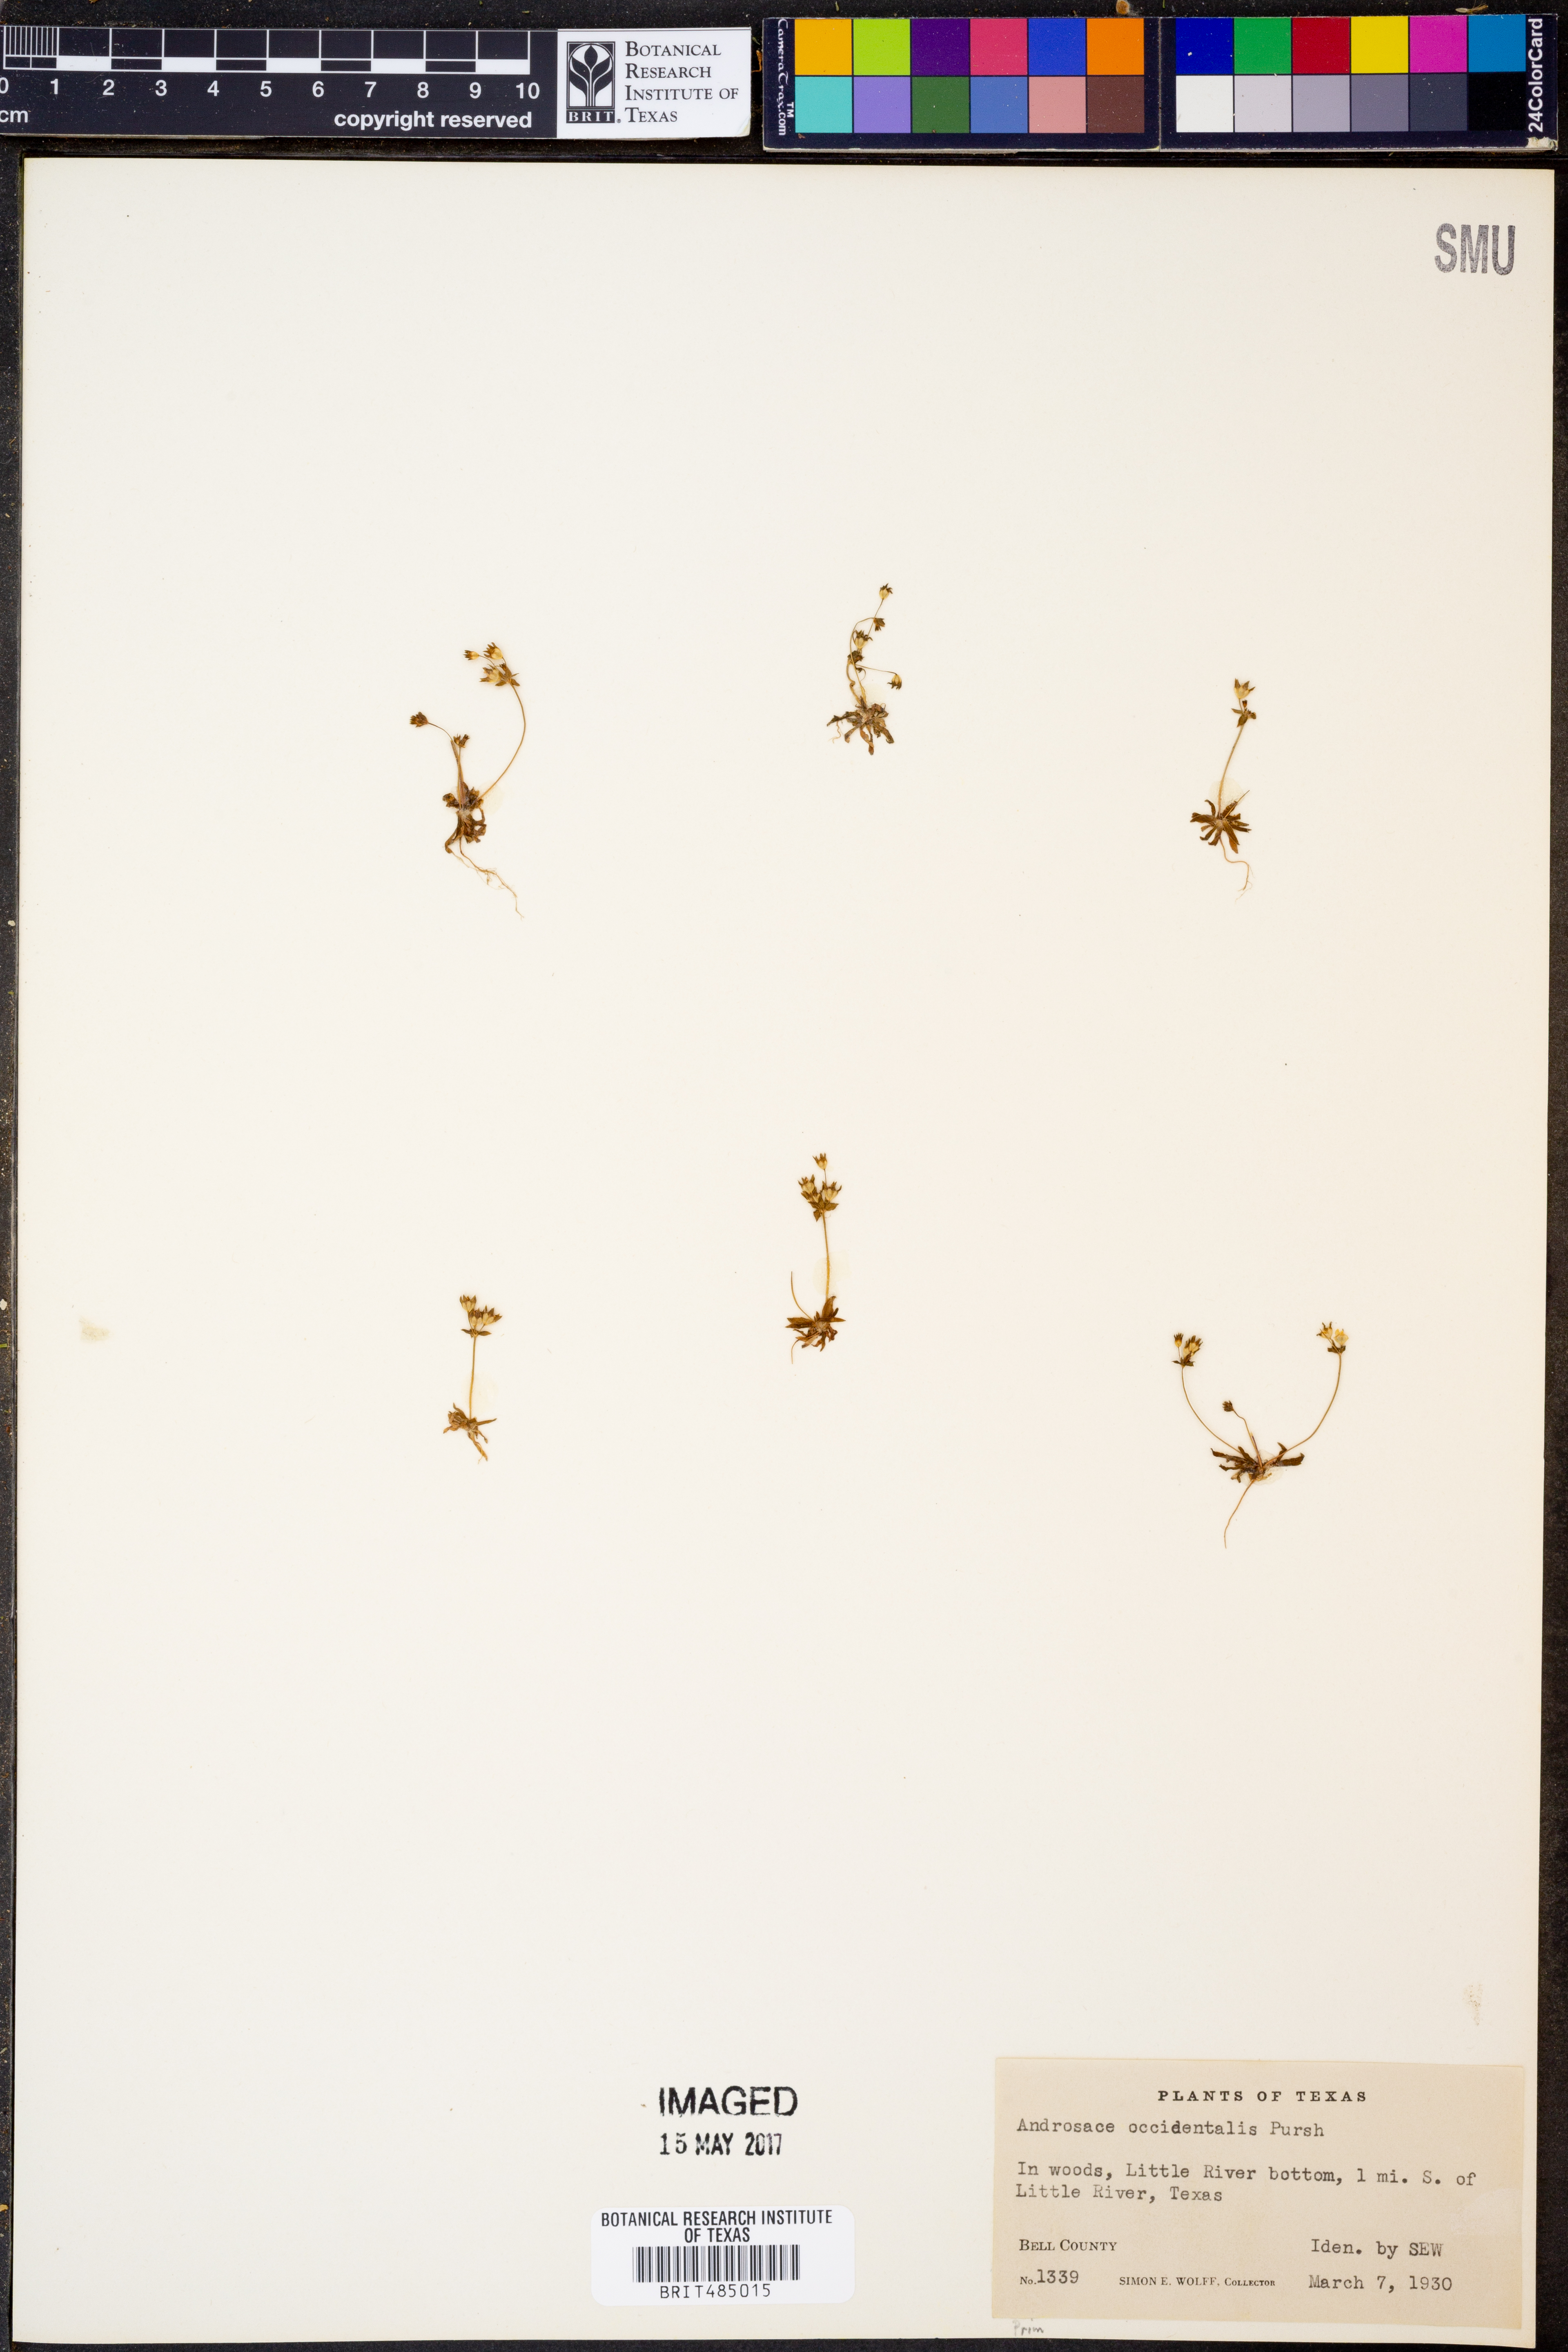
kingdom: Plantae
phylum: Tracheophyta
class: Magnoliopsida
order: Ericales
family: Primulaceae
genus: Androsace
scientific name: Androsace occidentalis
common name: West rock-jasmine
